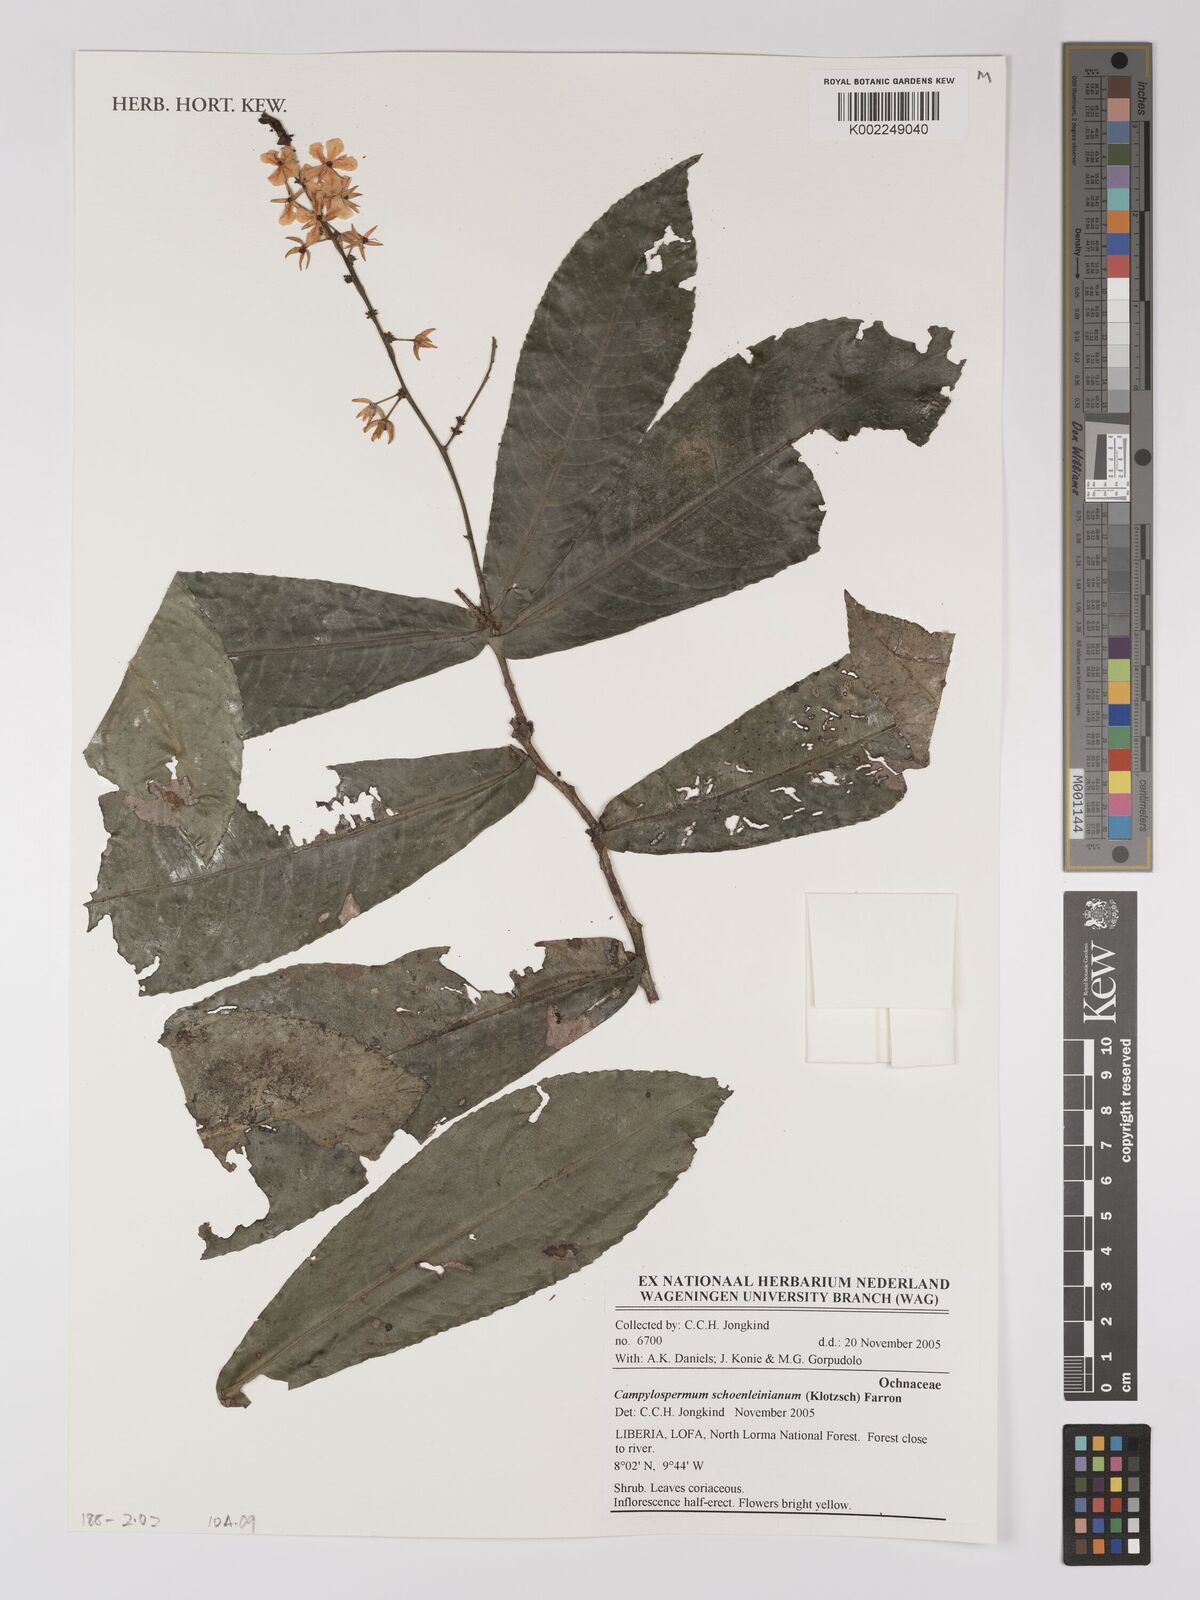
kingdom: Plantae
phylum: Tracheophyta
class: Magnoliopsida
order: Malpighiales
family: Ochnaceae
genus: Campylospermum
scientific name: Campylospermum schoenleinianum
